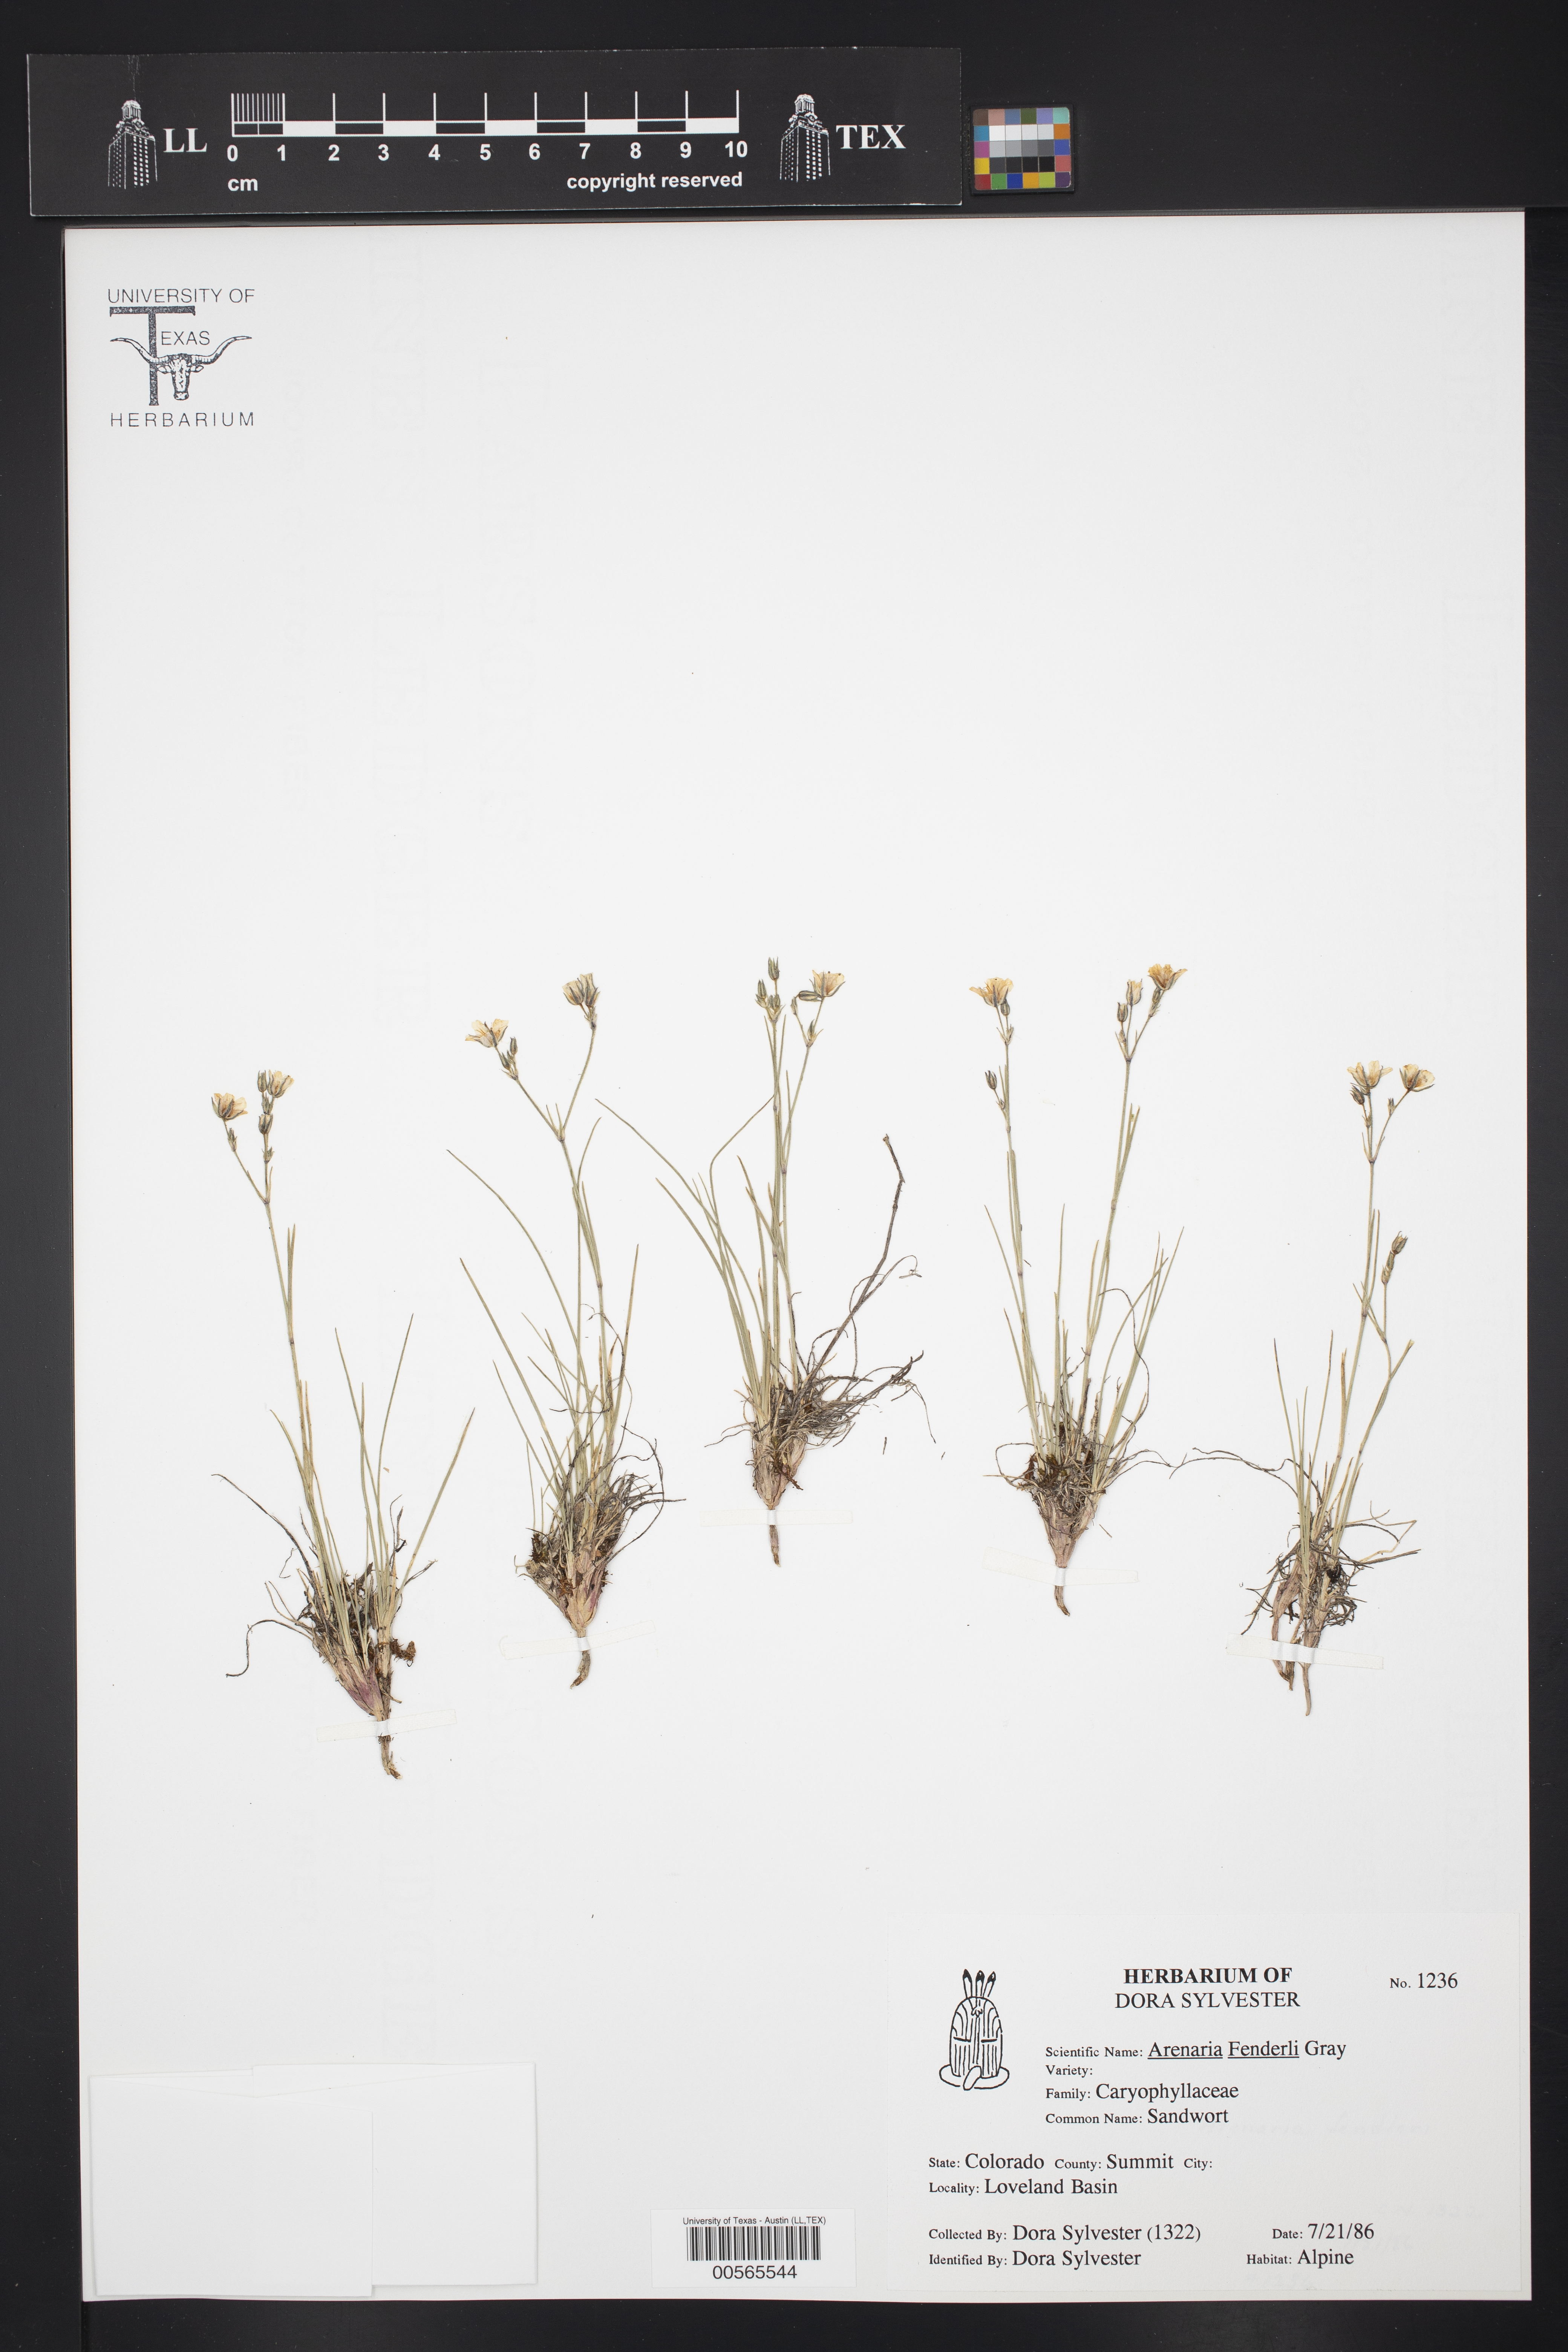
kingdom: Plantae
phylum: Tracheophyta
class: Magnoliopsida
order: Caryophyllales
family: Caryophyllaceae
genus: Eremogone
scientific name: Eremogone fendleri
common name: Fendler's sandwort
